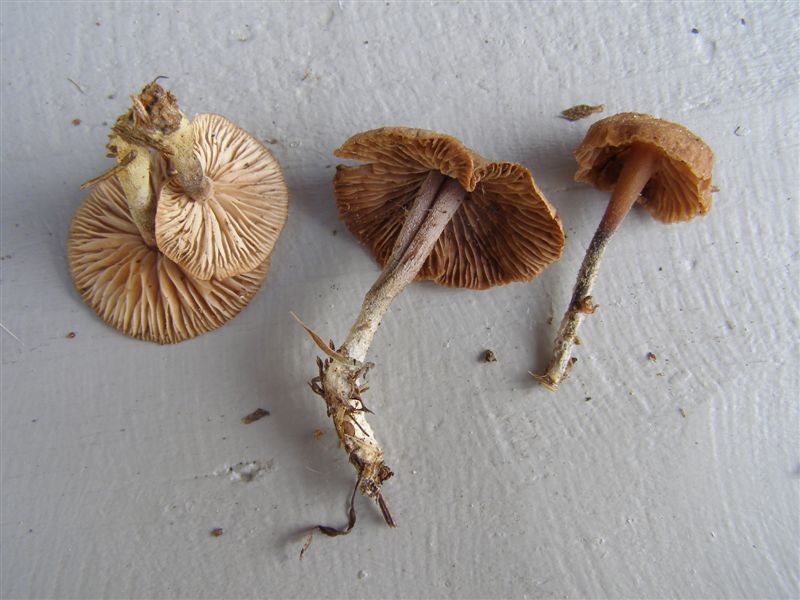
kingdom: Fungi
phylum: Basidiomycota
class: Agaricomycetes
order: Agaricales
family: Omphalotaceae
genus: Gymnopus
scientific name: Gymnopus impudicus
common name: fesen fladhat
